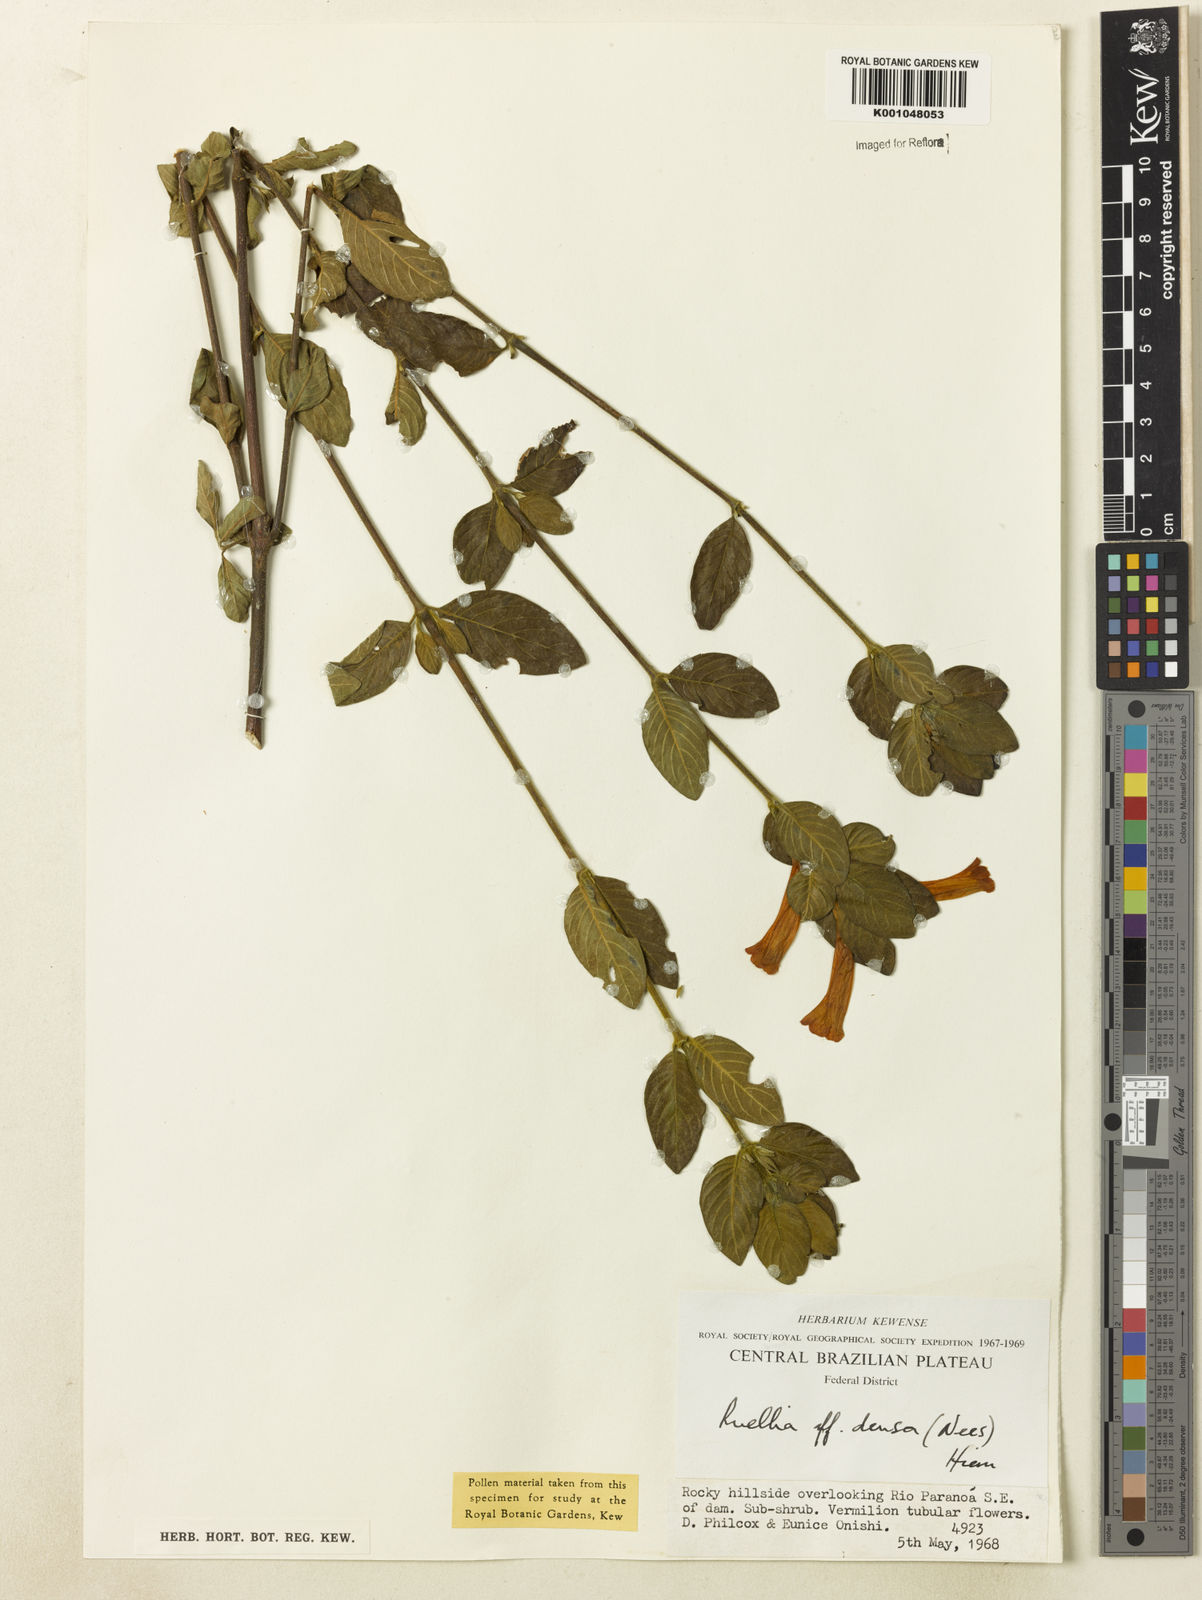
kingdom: Plantae
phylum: Tracheophyta
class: Magnoliopsida
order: Lamiales
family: Acanthaceae
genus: Ruellia
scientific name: Ruellia densa
